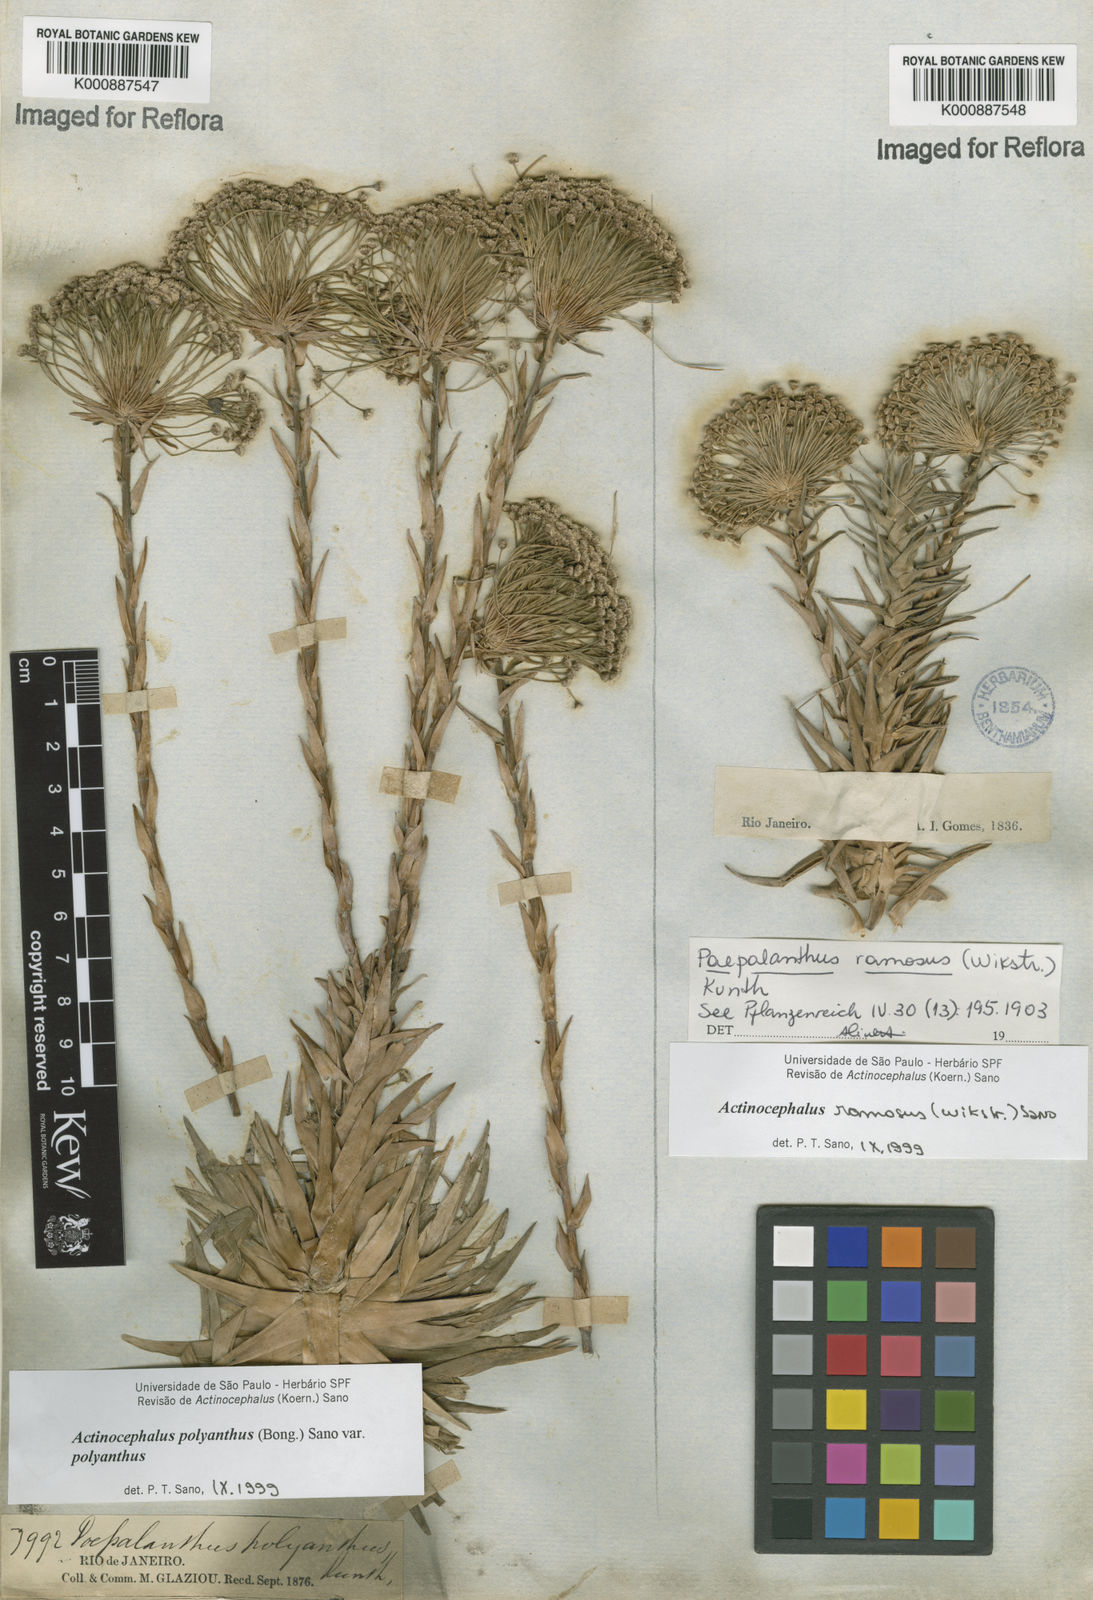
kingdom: Plantae
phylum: Tracheophyta
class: Liliopsida
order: Poales
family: Eriocaulaceae
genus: Paepalanthus
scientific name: Paepalanthus polyanthus
